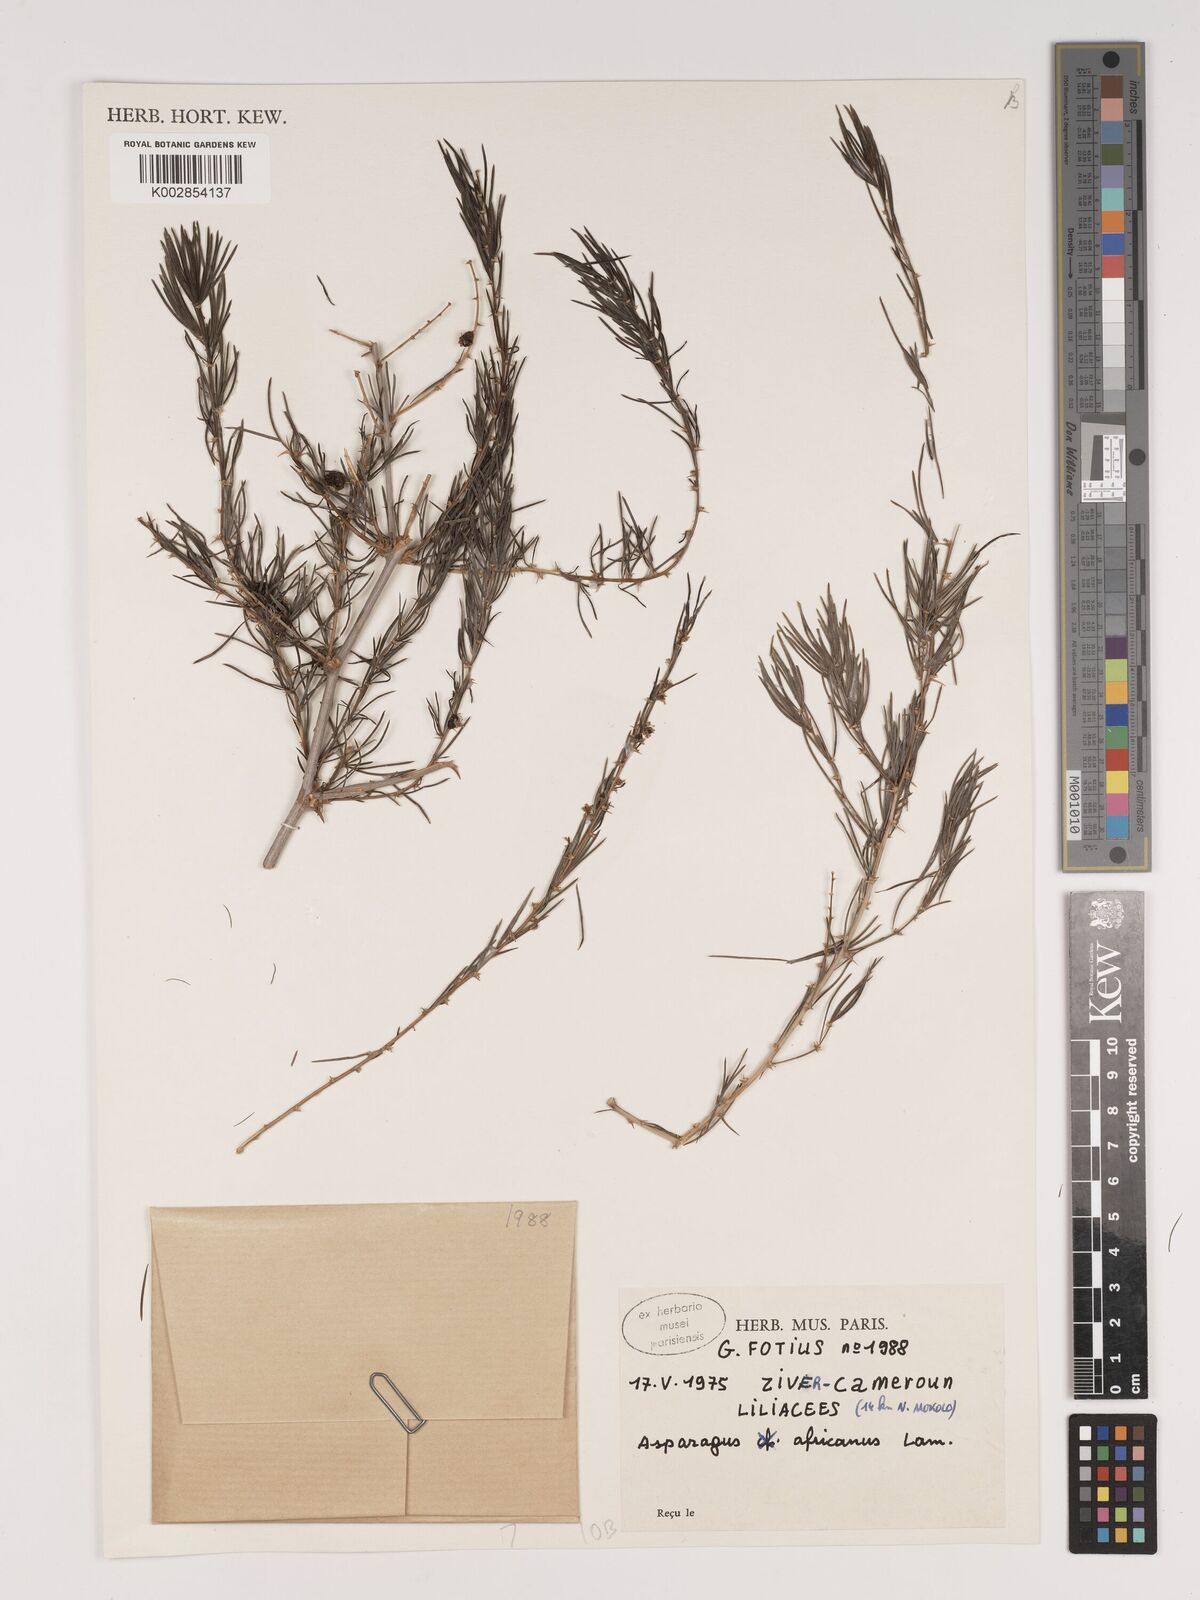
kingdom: Plantae
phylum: Tracheophyta
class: Liliopsida
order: Asparagales
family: Asparagaceae
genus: Asparagus
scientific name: Asparagus africanus
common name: Asparagus-fern
